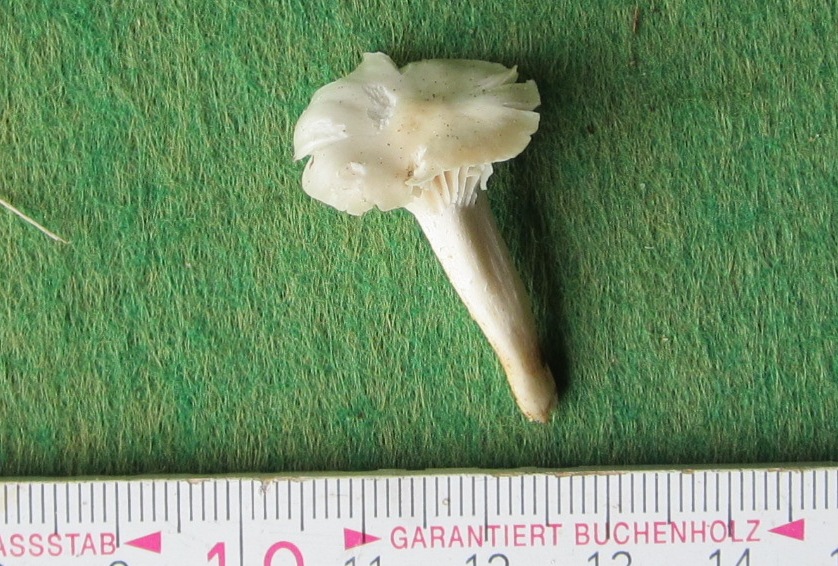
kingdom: Fungi
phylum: Basidiomycota
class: Agaricomycetes
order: Agaricales
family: Hygrophoraceae
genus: Cuphophyllus
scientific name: Cuphophyllus virgineus
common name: snehvid vokshat
